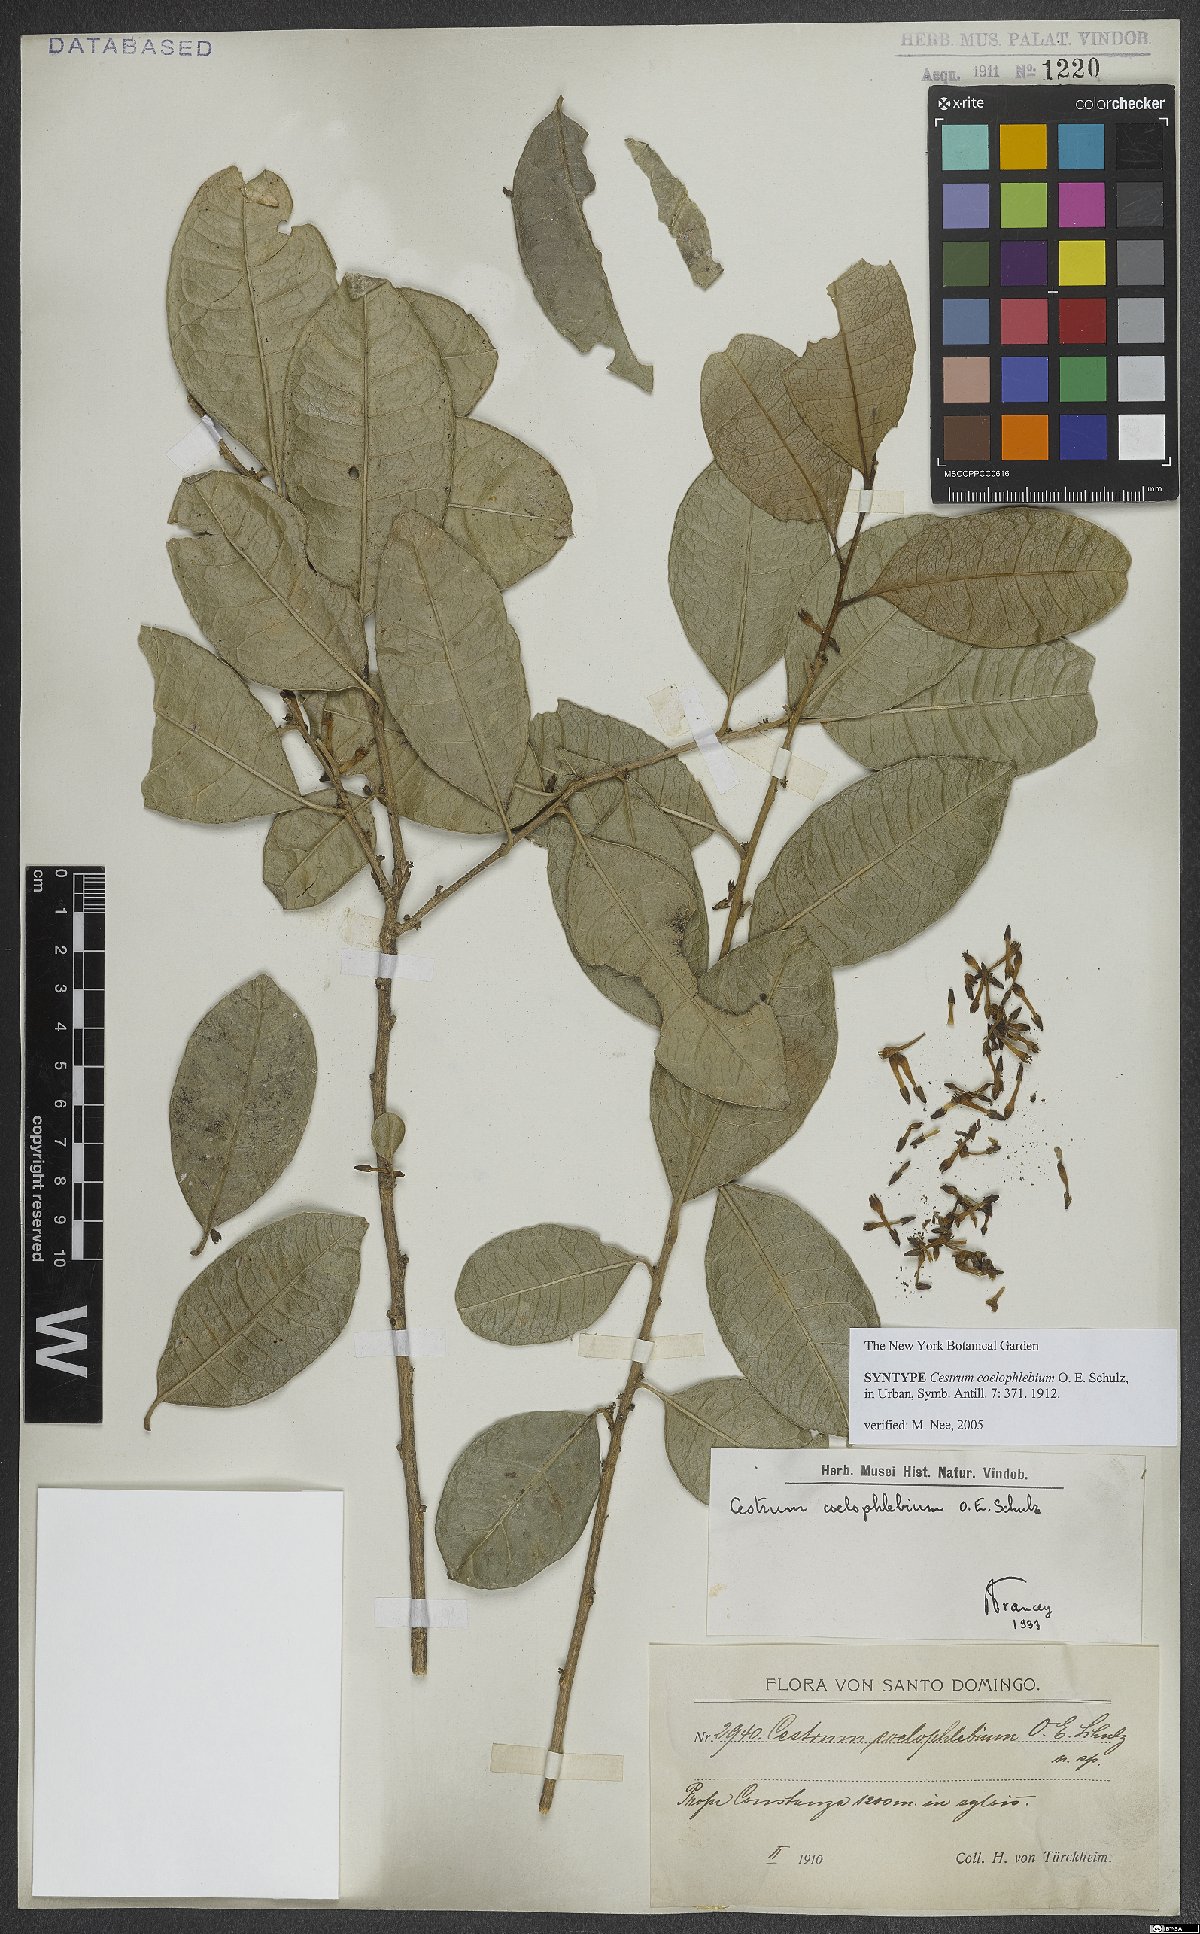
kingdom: Plantae
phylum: Tracheophyta
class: Magnoliopsida
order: Solanales
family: Solanaceae
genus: Cestrum
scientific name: Cestrum coelophlebium
